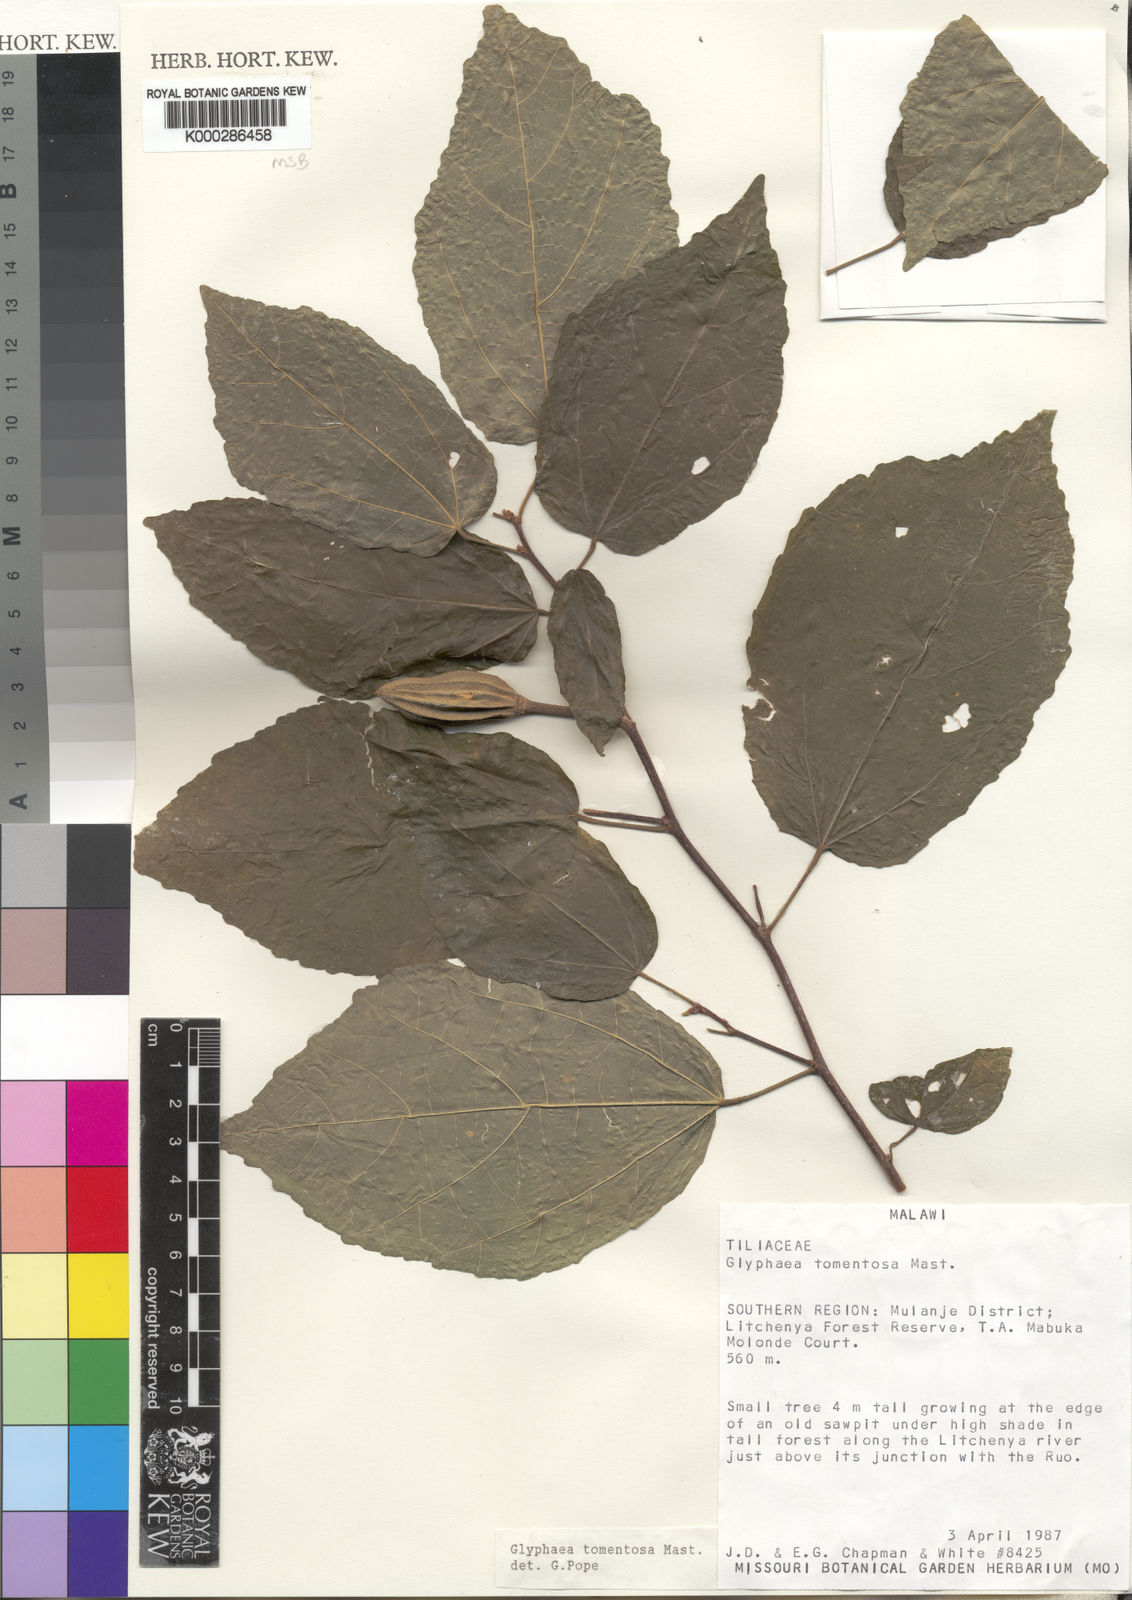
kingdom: Plantae
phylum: Tracheophyta
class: Magnoliopsida
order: Malvales
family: Malvaceae
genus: Glyphaea
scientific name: Glyphaea tomentosa
